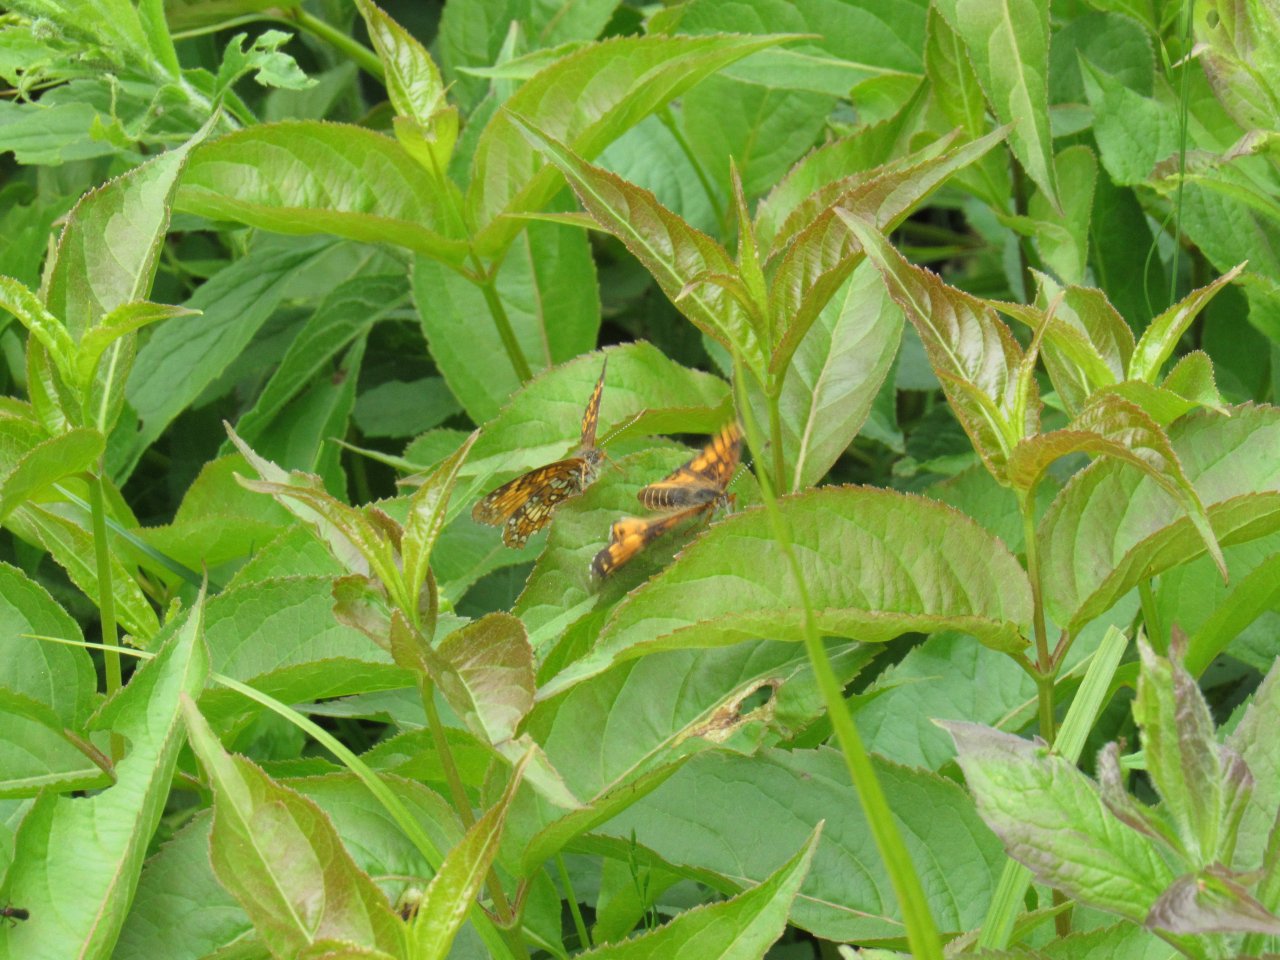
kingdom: Animalia
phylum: Arthropoda
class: Insecta
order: Lepidoptera
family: Nymphalidae
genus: Chlosyne
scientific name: Chlosyne harrisii
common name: Harris's Checkerspot
